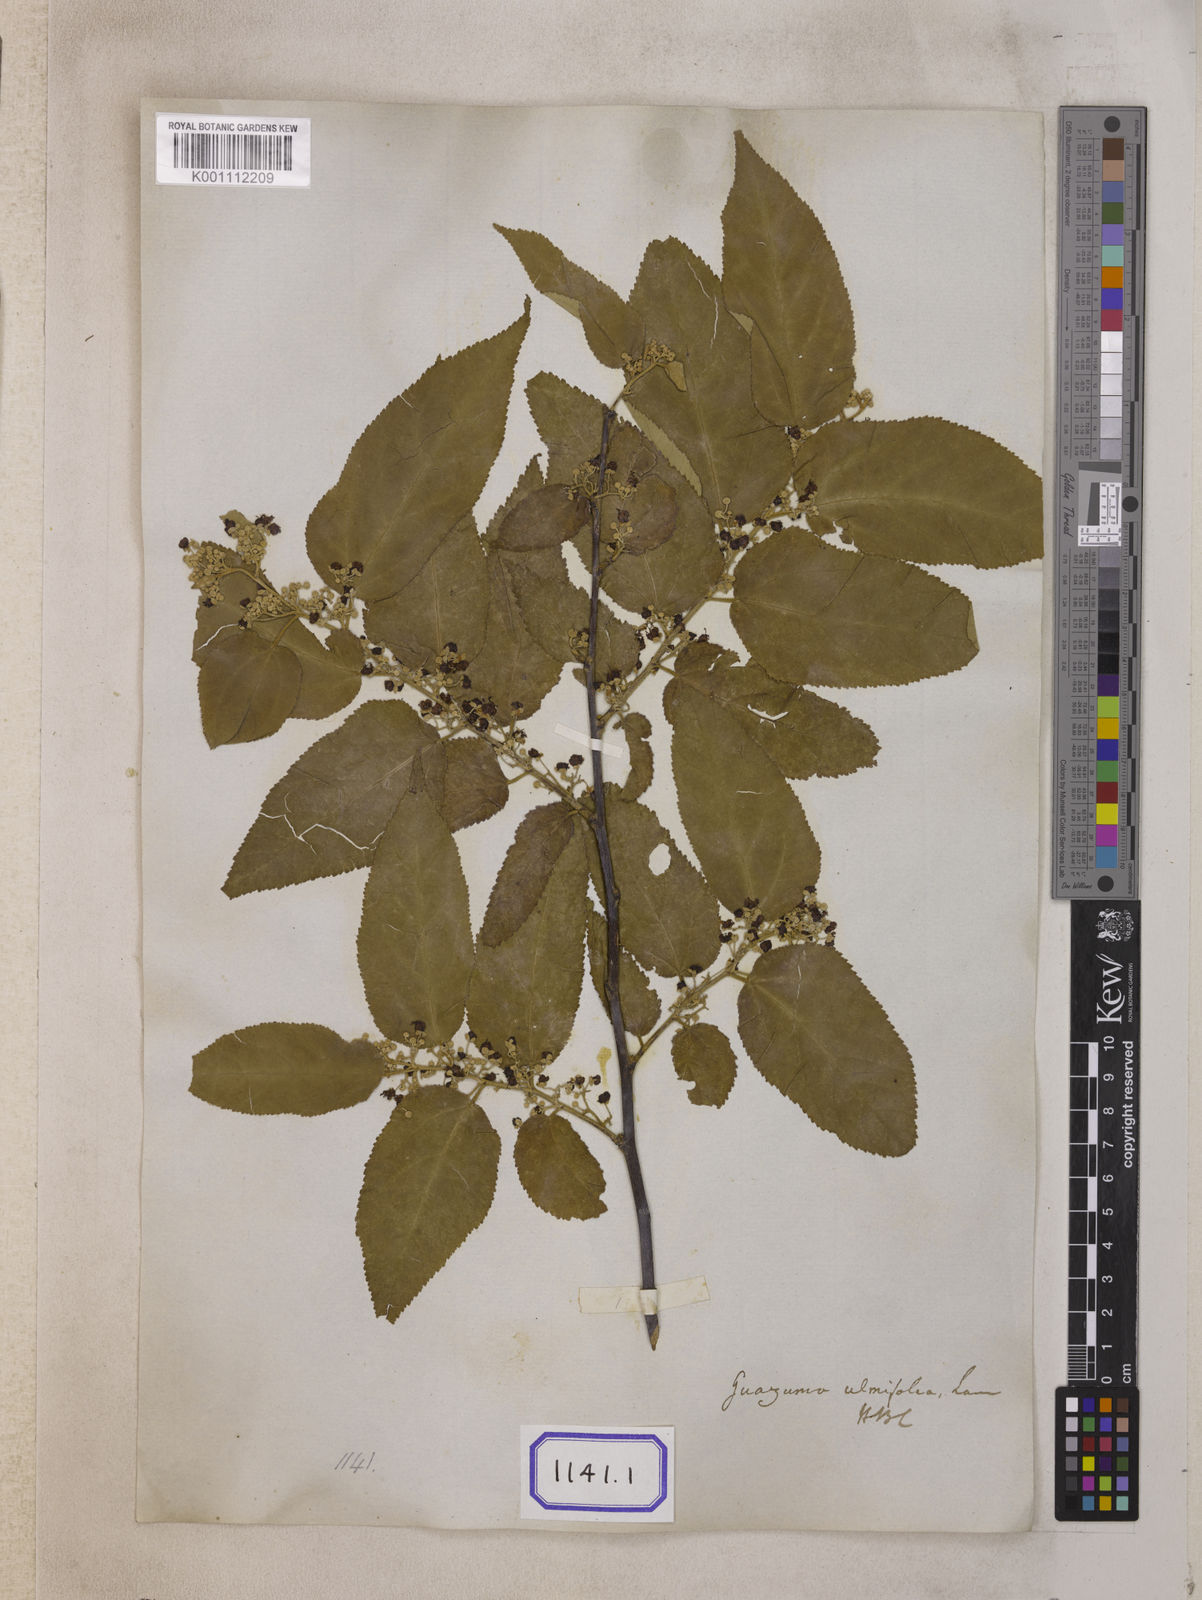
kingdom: Plantae
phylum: Tracheophyta
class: Magnoliopsida
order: Malvales
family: Malvaceae
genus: Guazuma
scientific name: Guazuma ulmifolia
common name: Bastard-cedar
